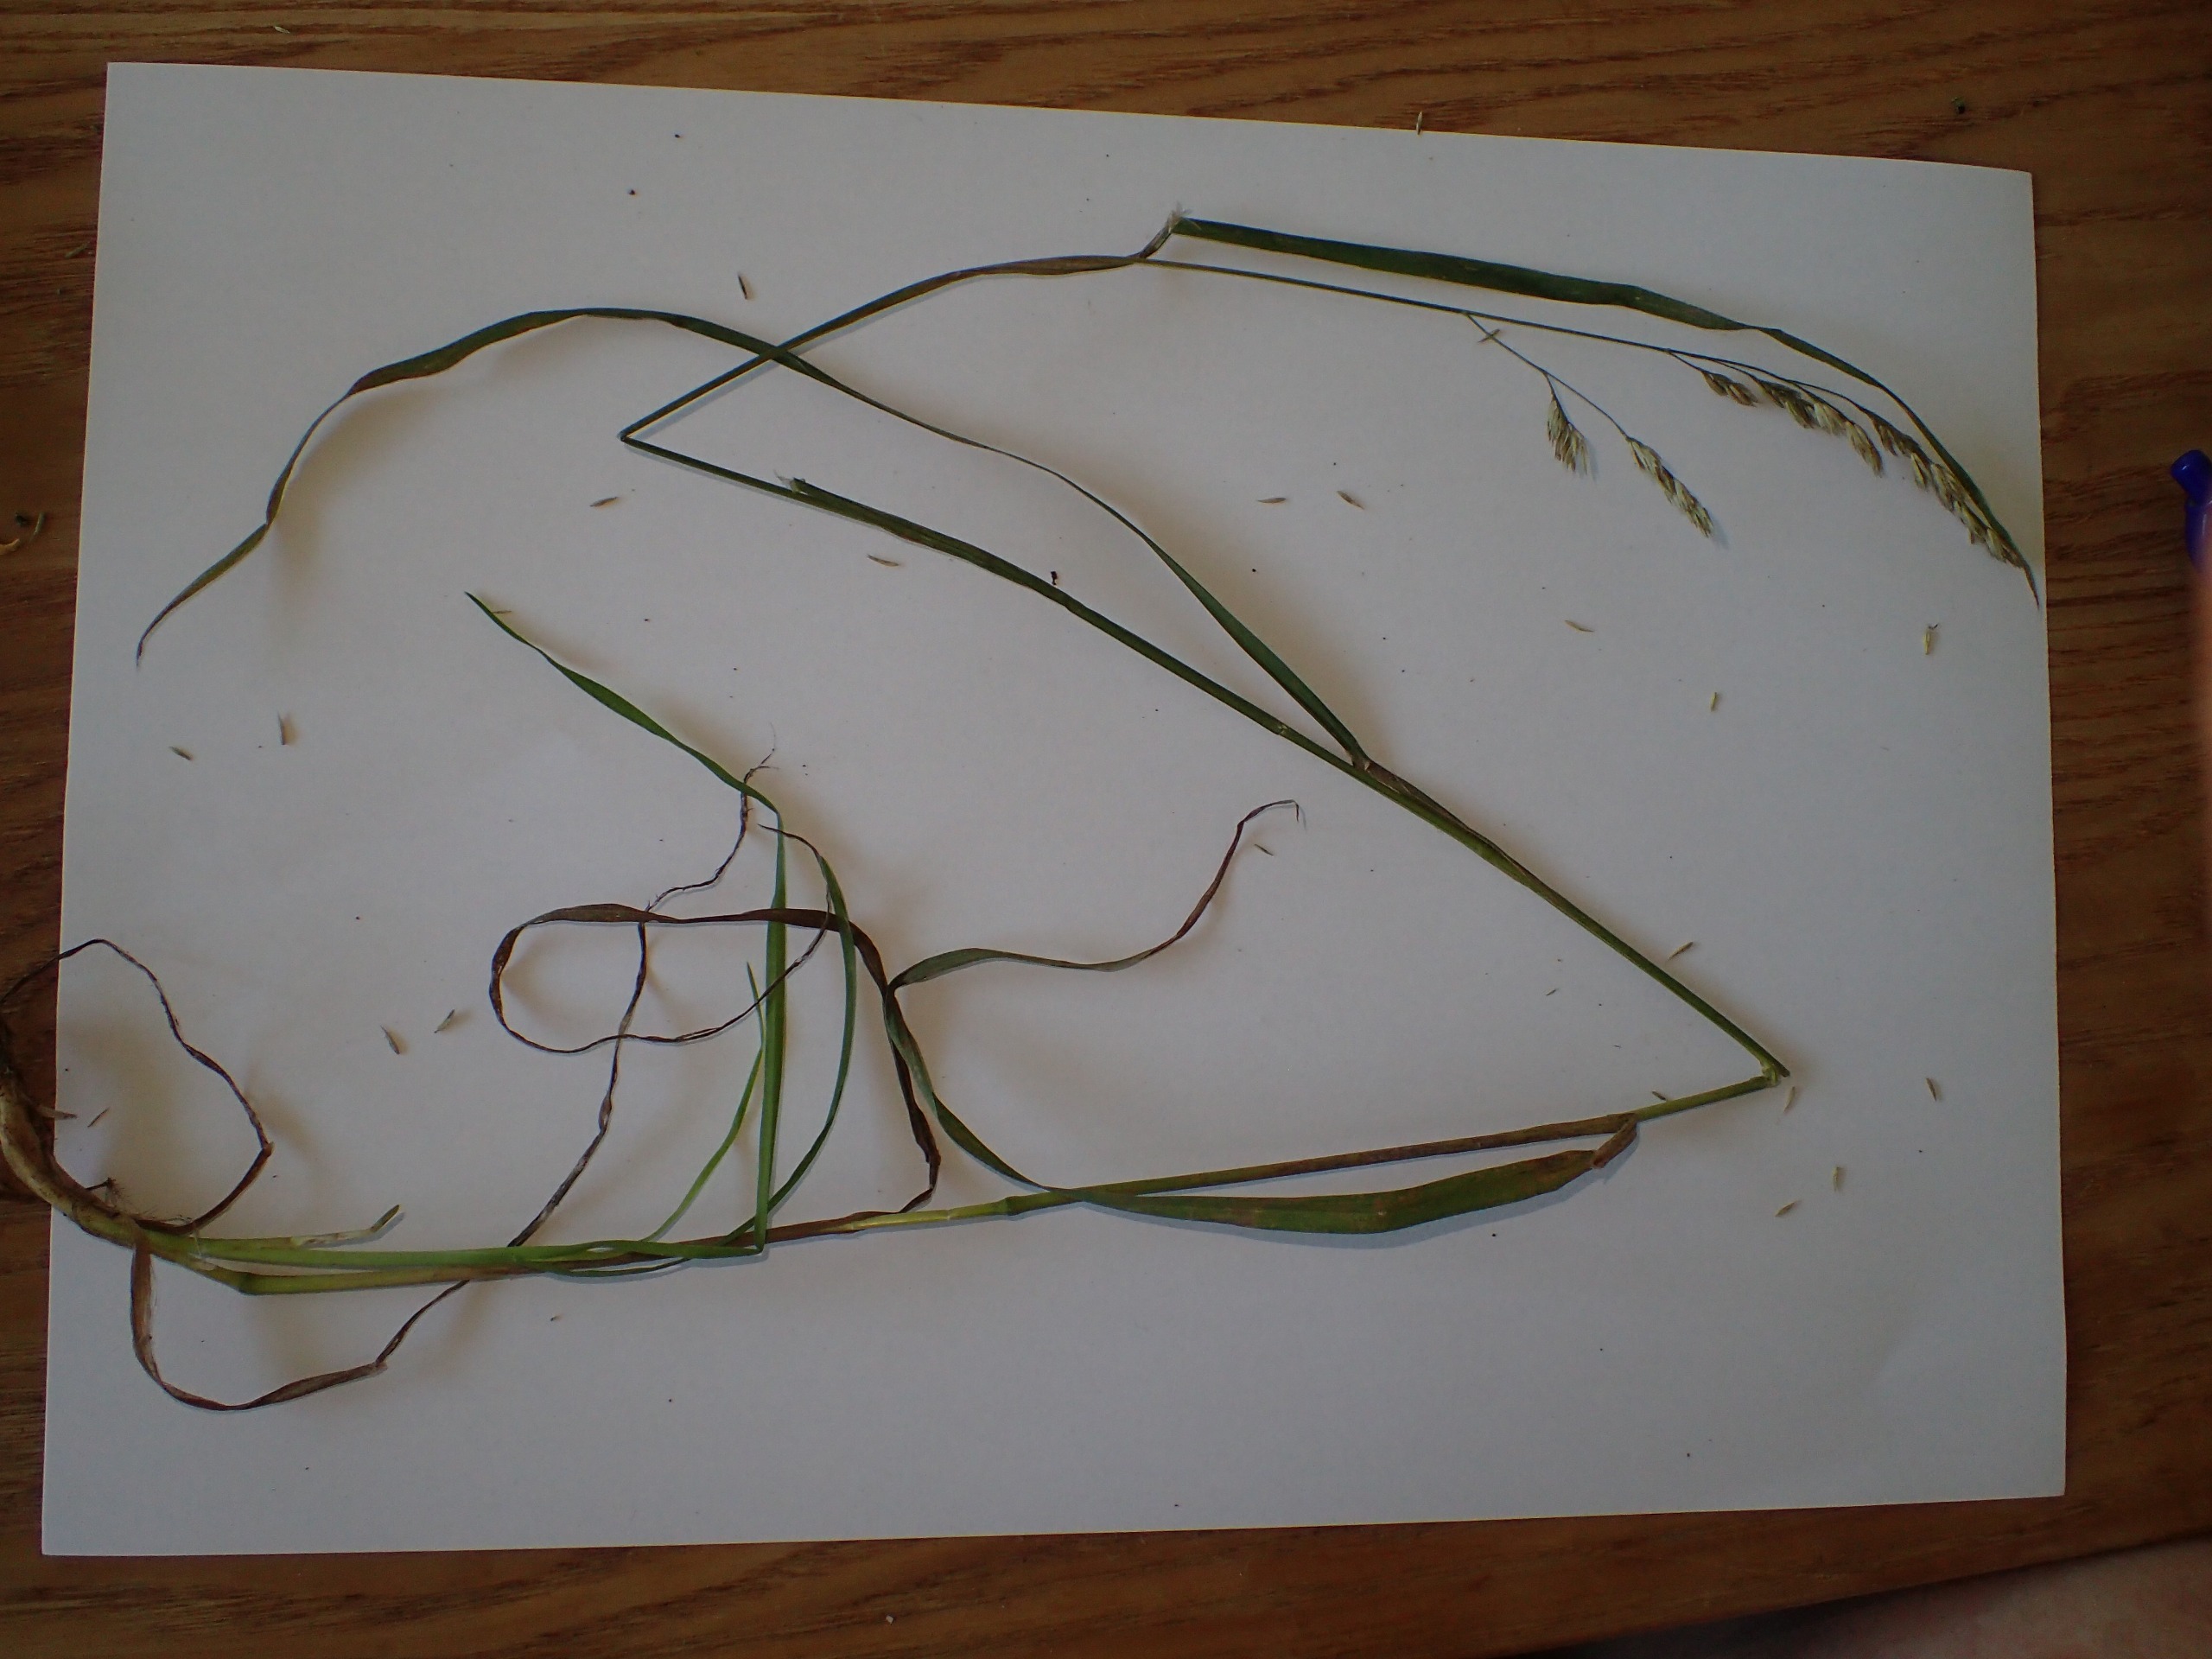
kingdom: Plantae
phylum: Tracheophyta
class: Liliopsida
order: Poales
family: Poaceae
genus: Dactylis
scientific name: Dactylis glomerata
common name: Skov-hundegræs
